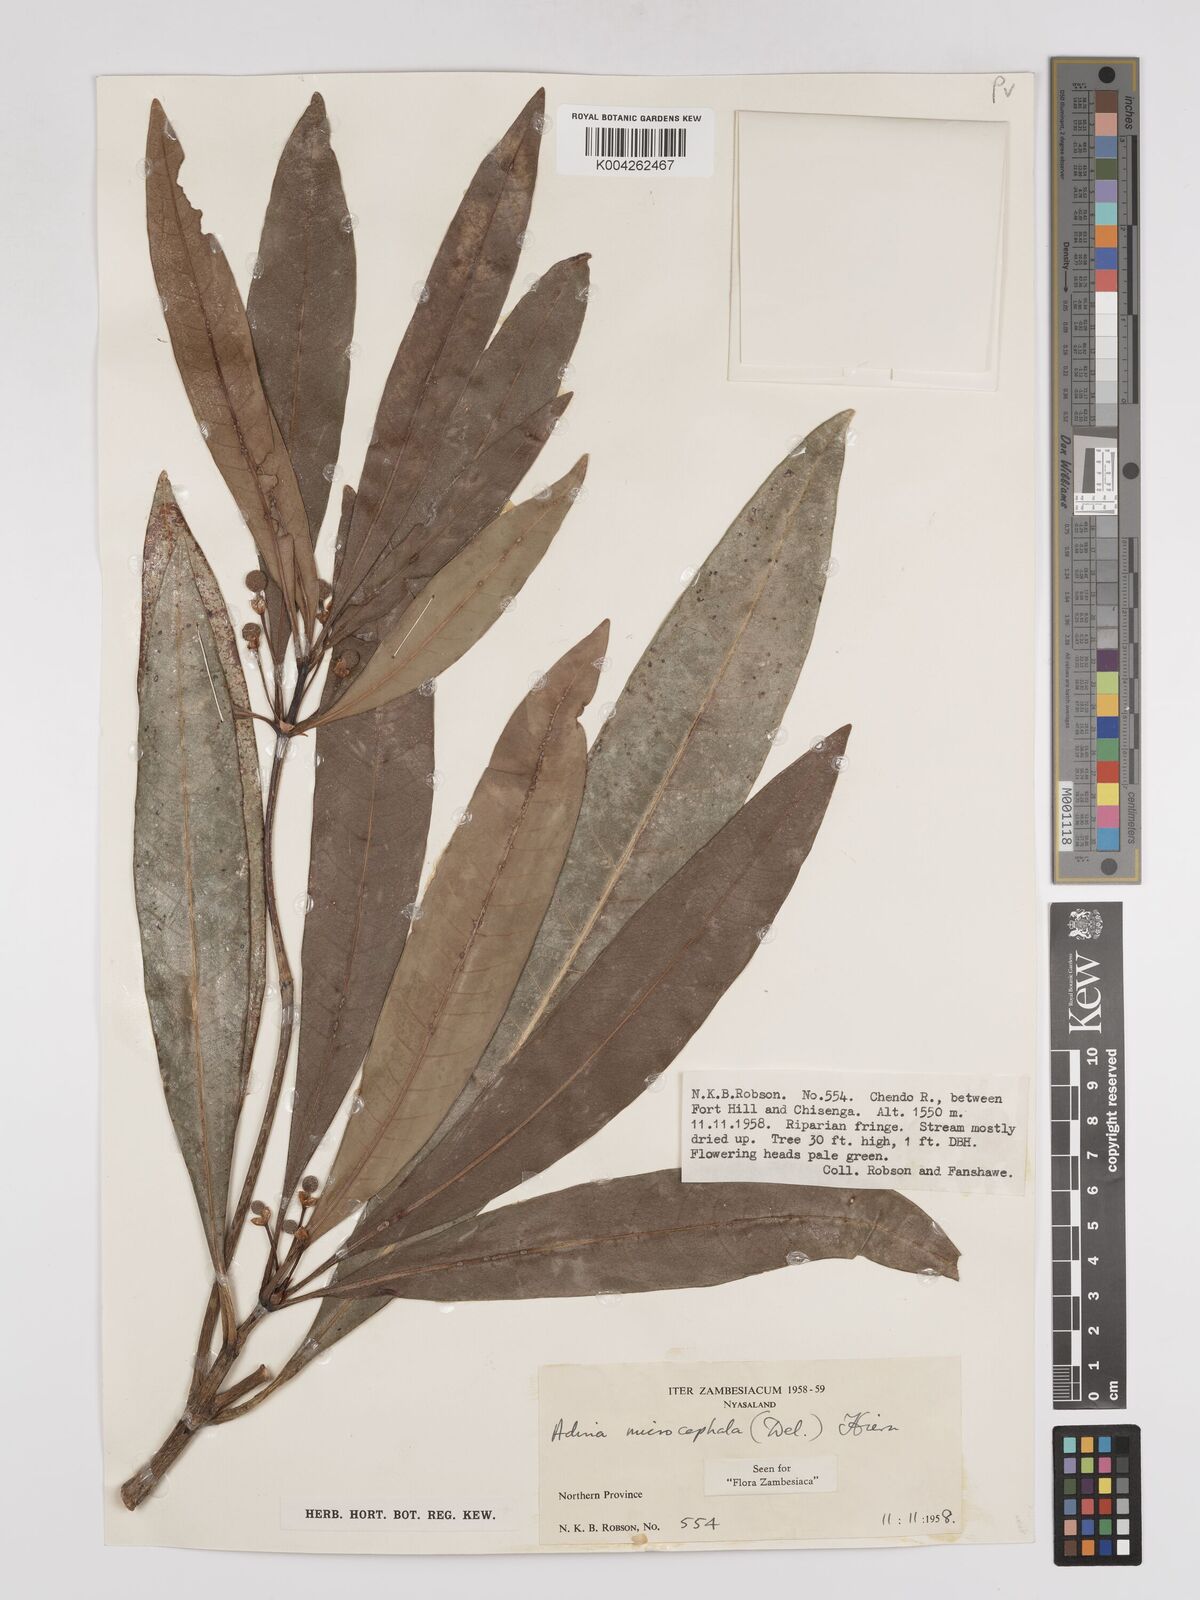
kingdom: Plantae
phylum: Tracheophyta
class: Magnoliopsida
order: Gentianales
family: Rubiaceae
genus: Breonadia
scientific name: Breonadia salicina
